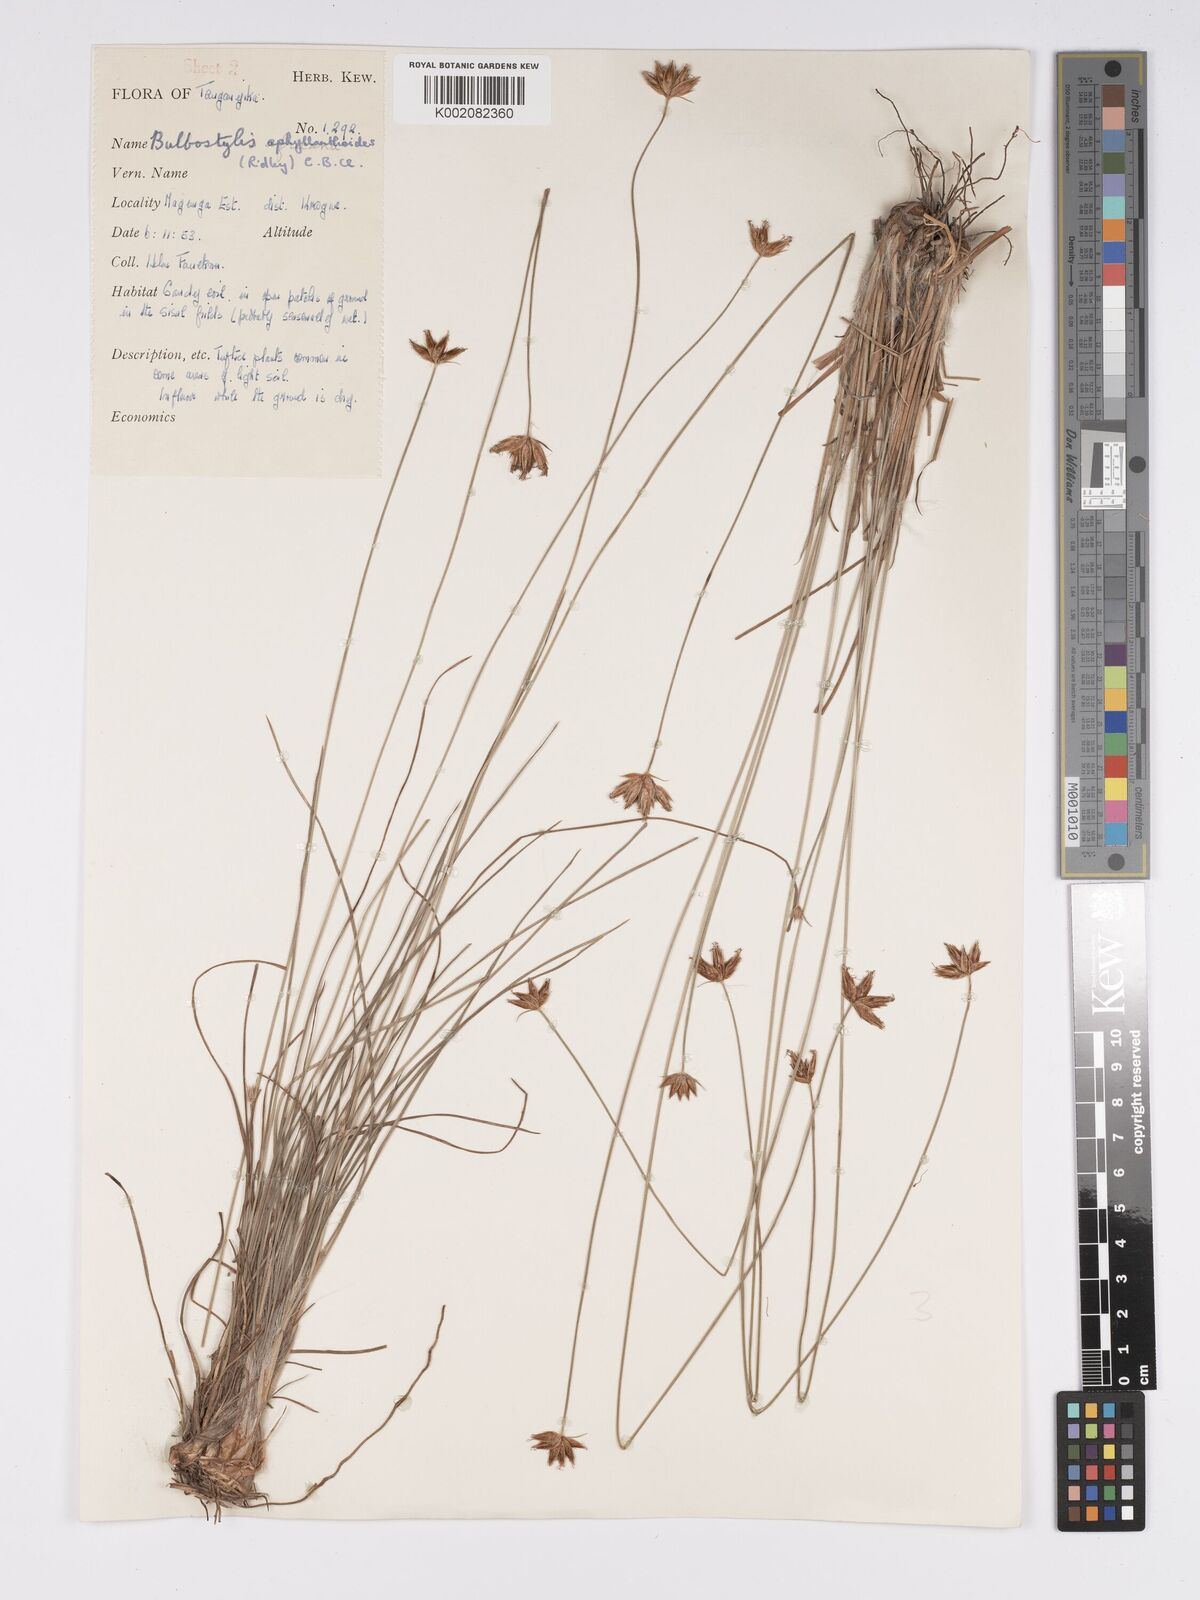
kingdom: Plantae
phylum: Tracheophyta
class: Liliopsida
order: Poales
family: Cyperaceae
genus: Bulbostylis
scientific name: Bulbostylis pilosa
